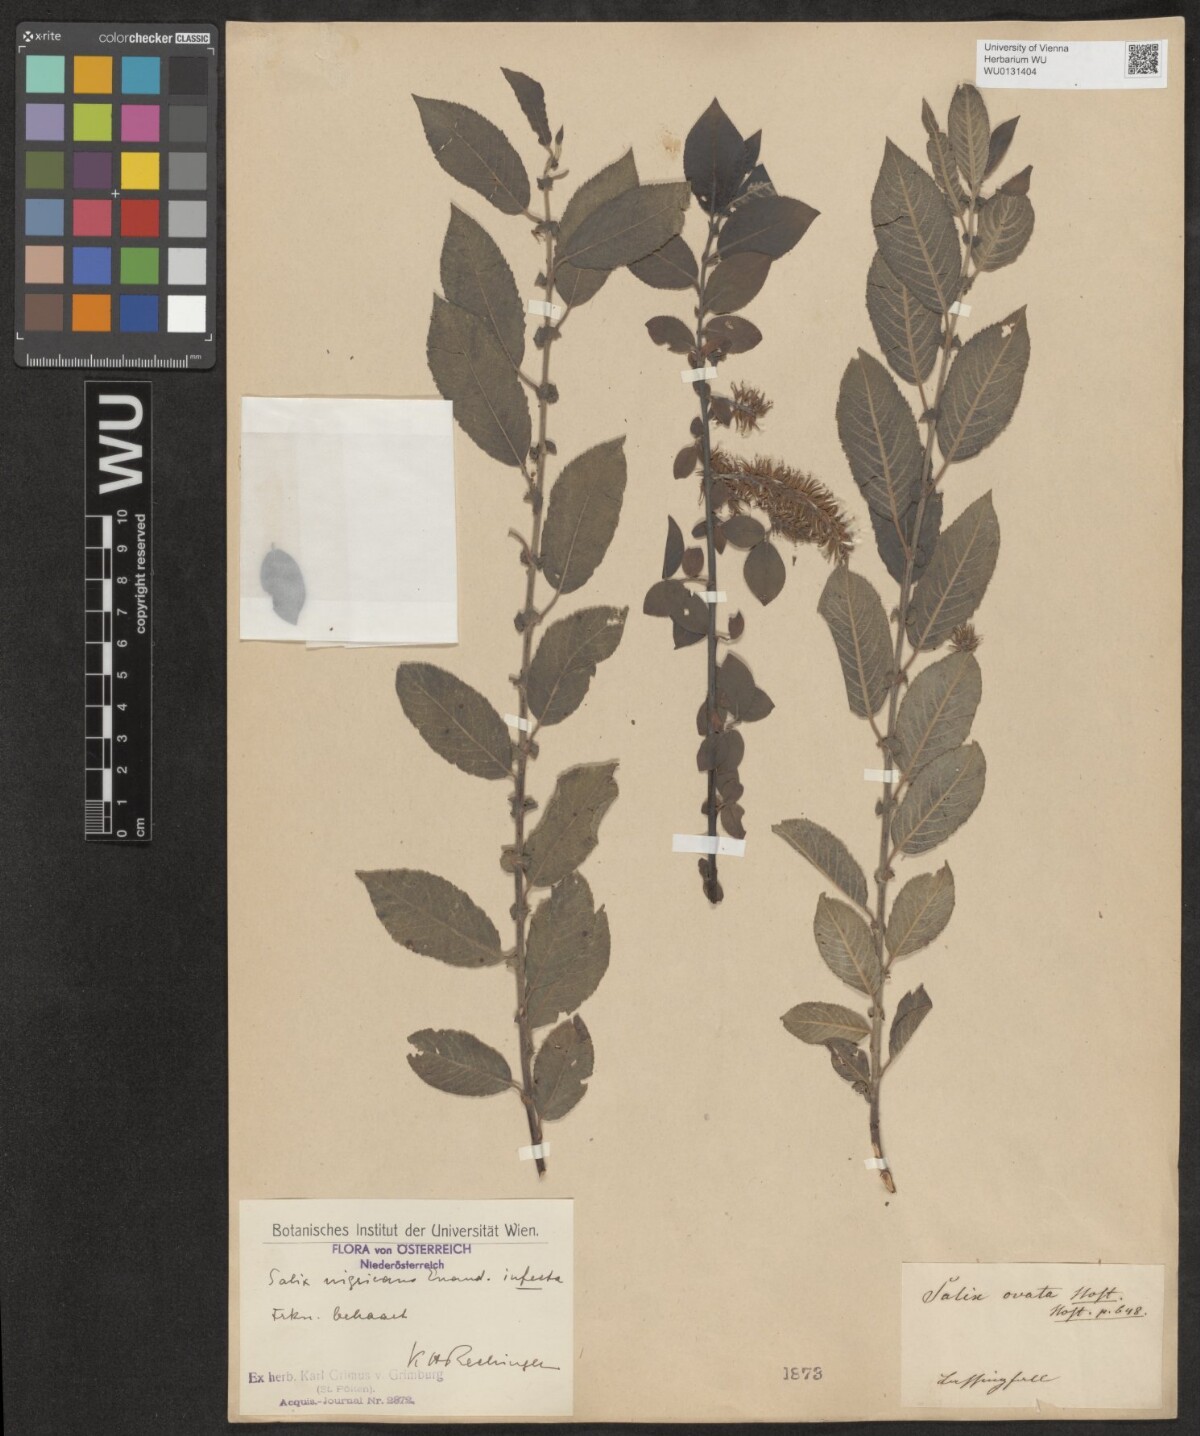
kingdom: Plantae
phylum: Tracheophyta
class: Magnoliopsida
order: Malpighiales
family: Salicaceae
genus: Salix
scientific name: Salix myrsinifolia
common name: Dark-leaved willow
